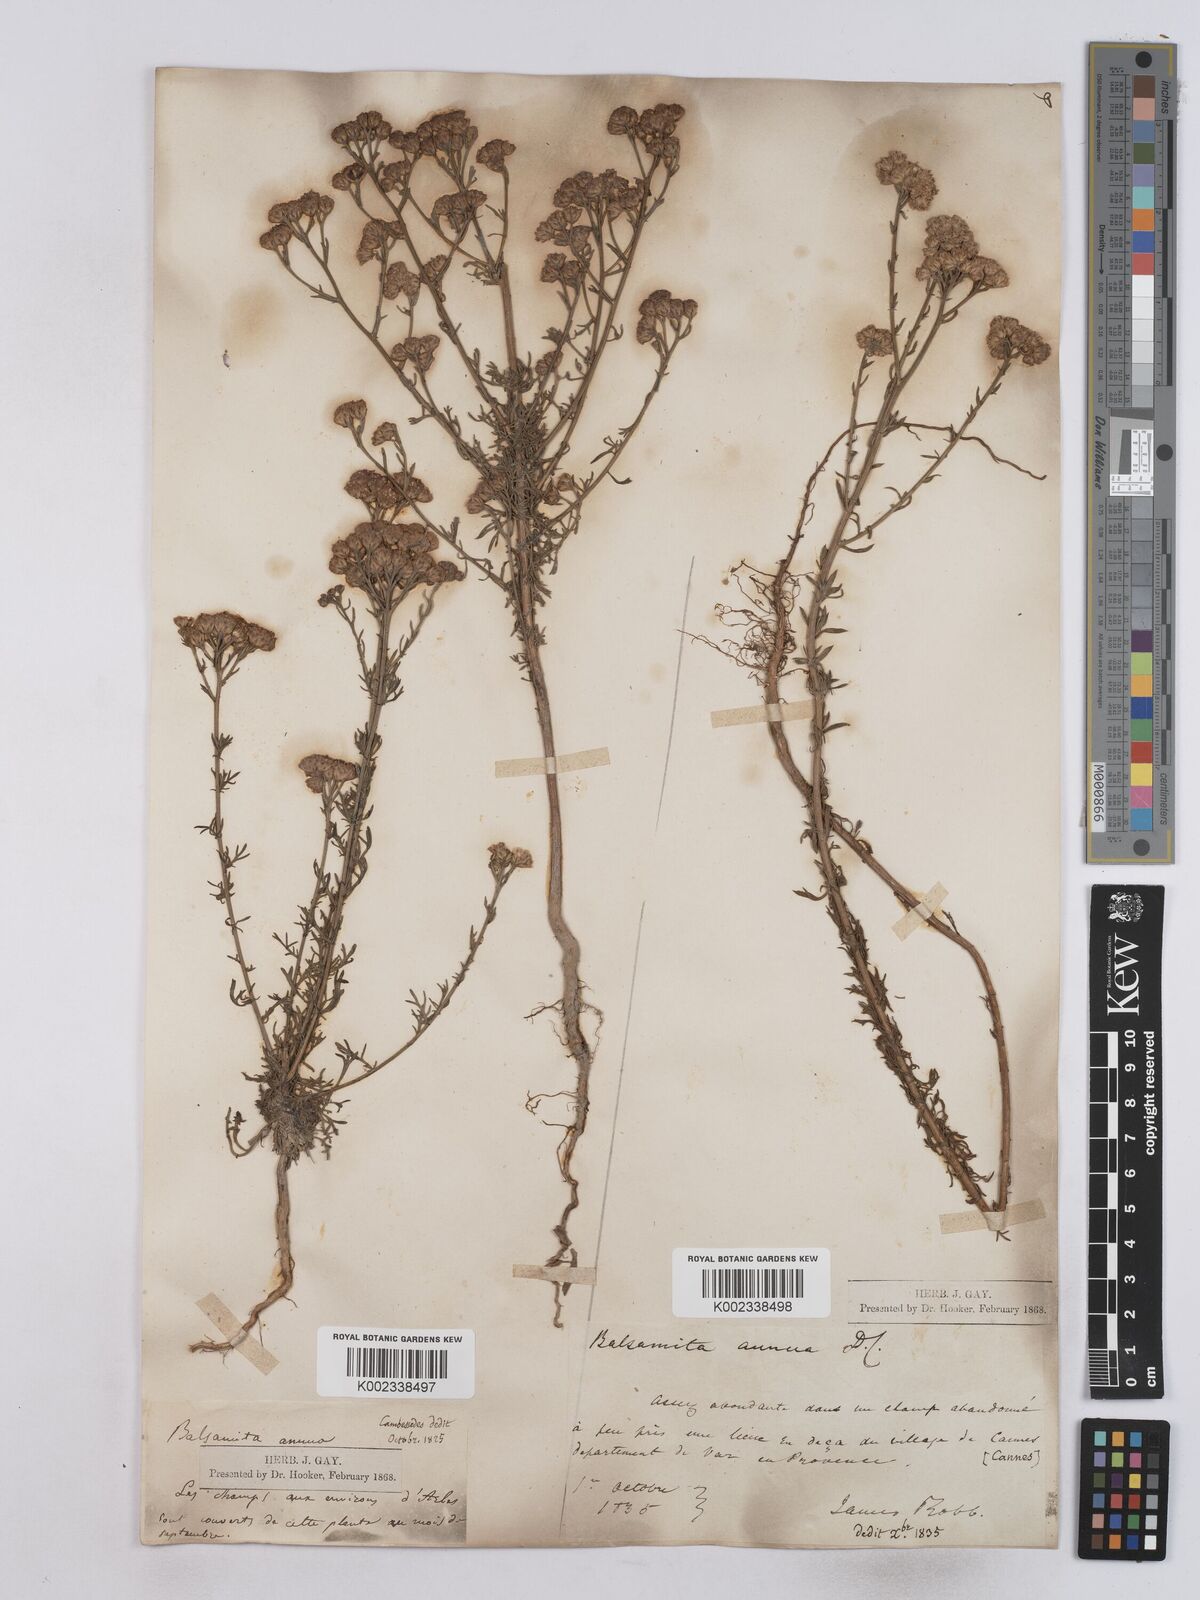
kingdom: Plantae
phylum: Tracheophyta
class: Magnoliopsida
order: Asterales
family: Asteraceae
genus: Vogtia
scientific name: Vogtia annua
